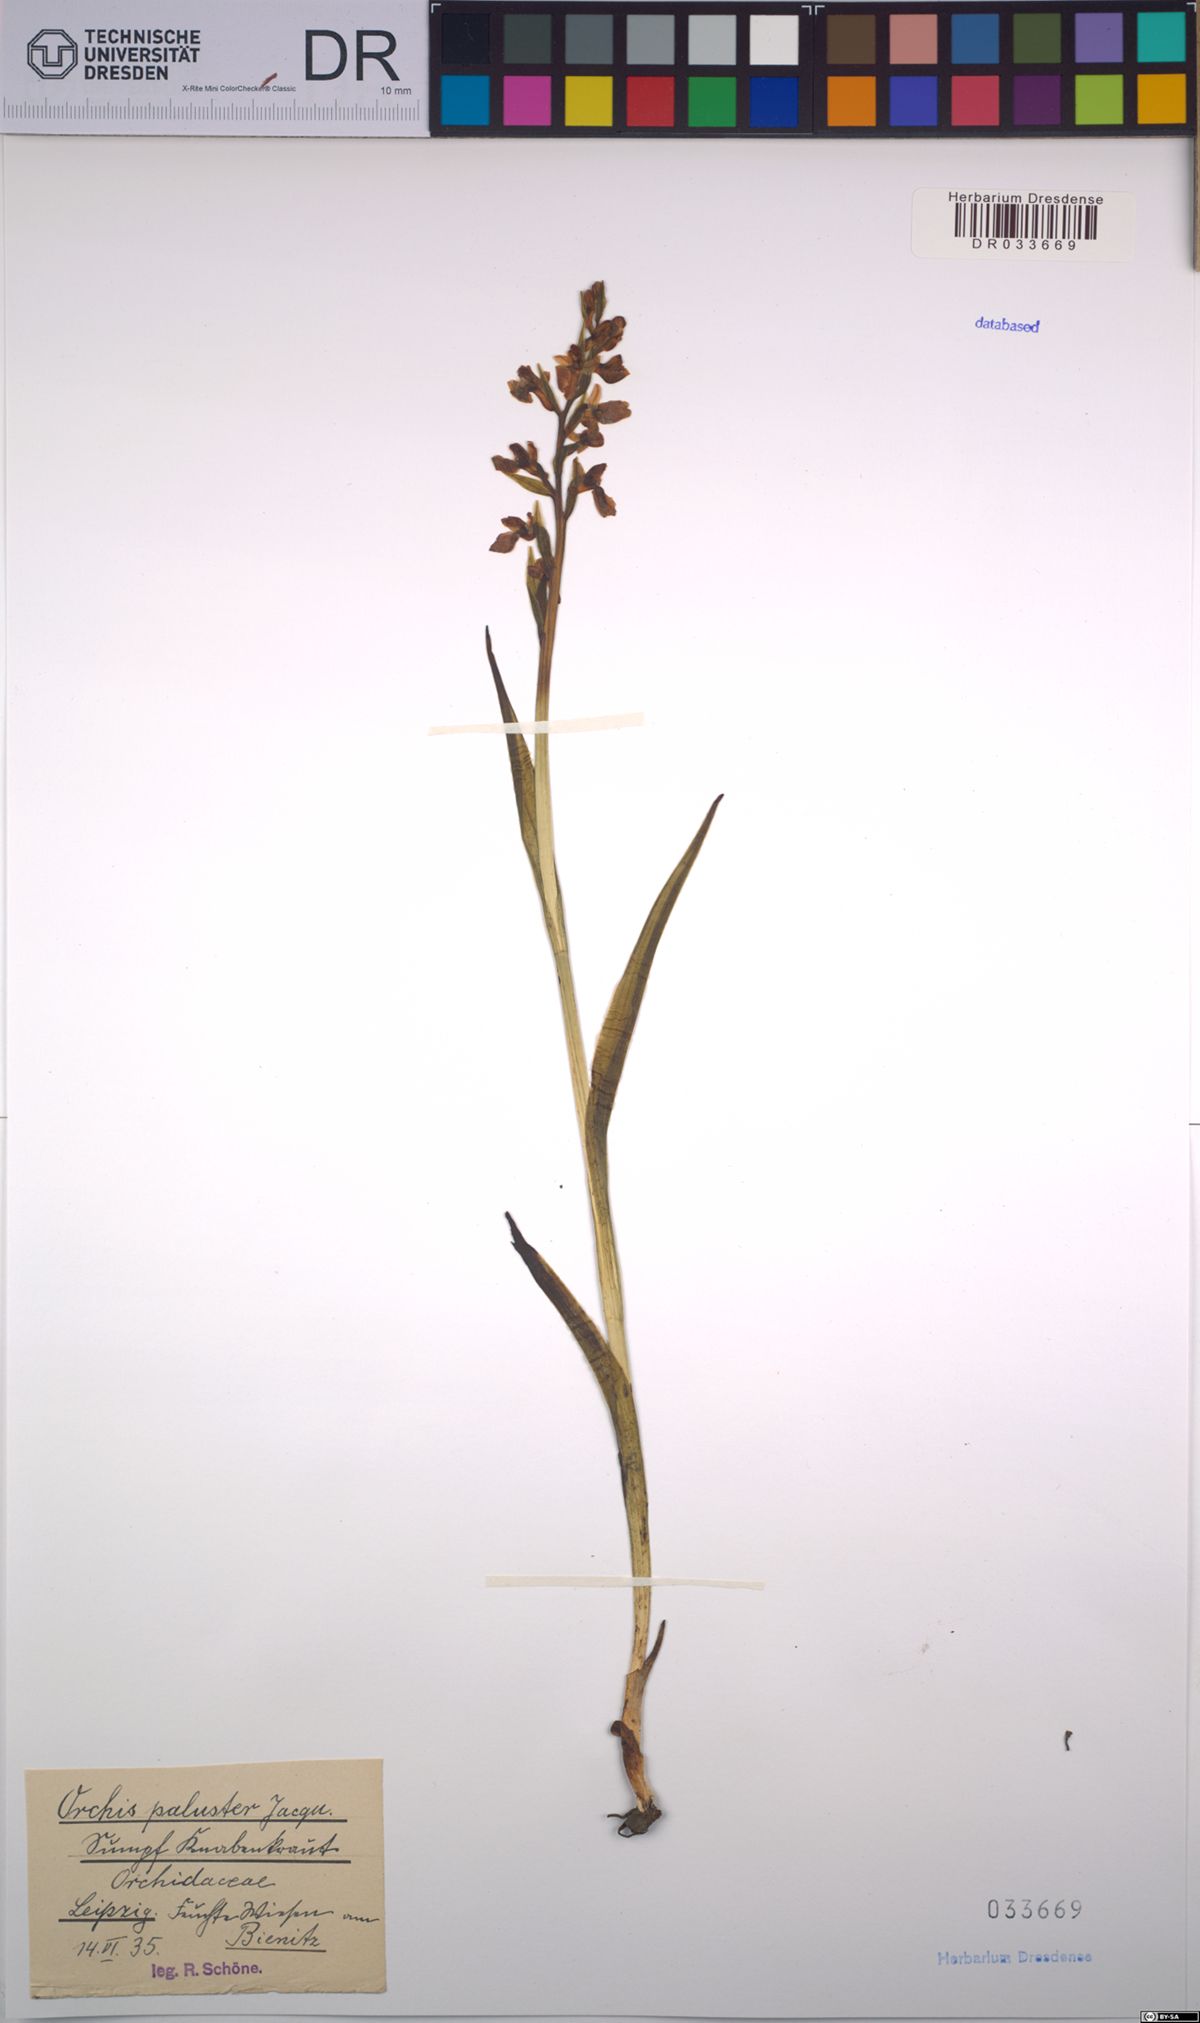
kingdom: Plantae
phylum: Tracheophyta
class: Liliopsida
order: Asparagales
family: Orchidaceae
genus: Anacamptis
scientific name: Anacamptis palustris
